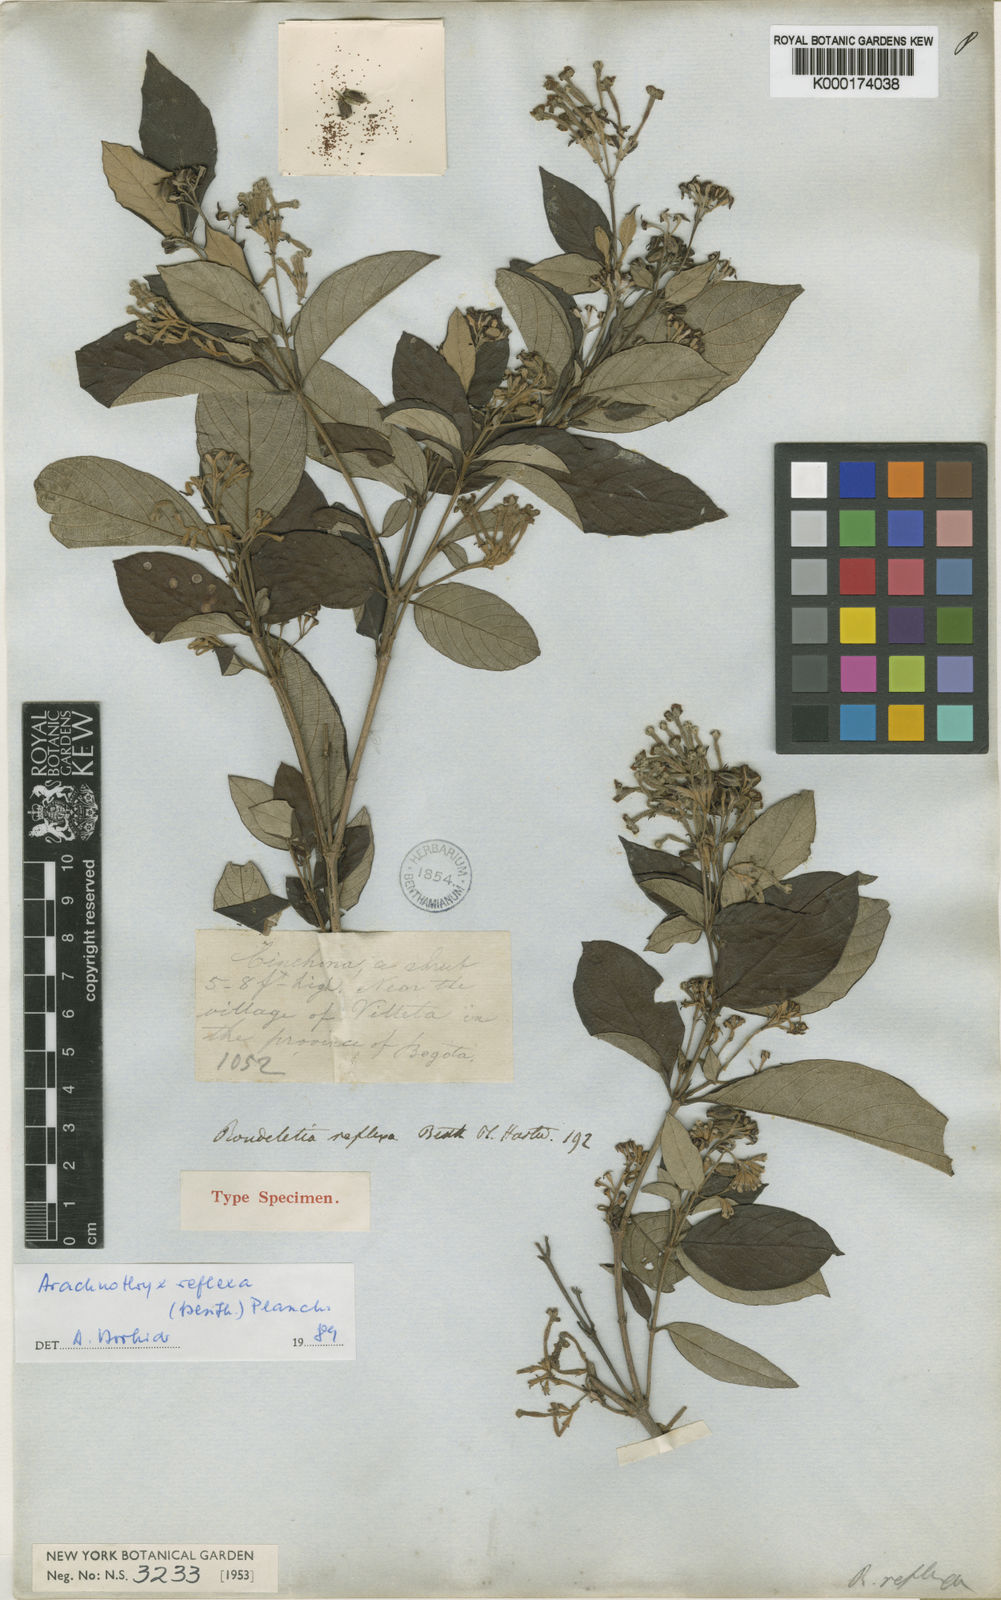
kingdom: Plantae
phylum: Tracheophyta
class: Magnoliopsida
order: Gentianales
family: Rubiaceae
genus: Arachnothryx
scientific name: Arachnothryx reflexa
